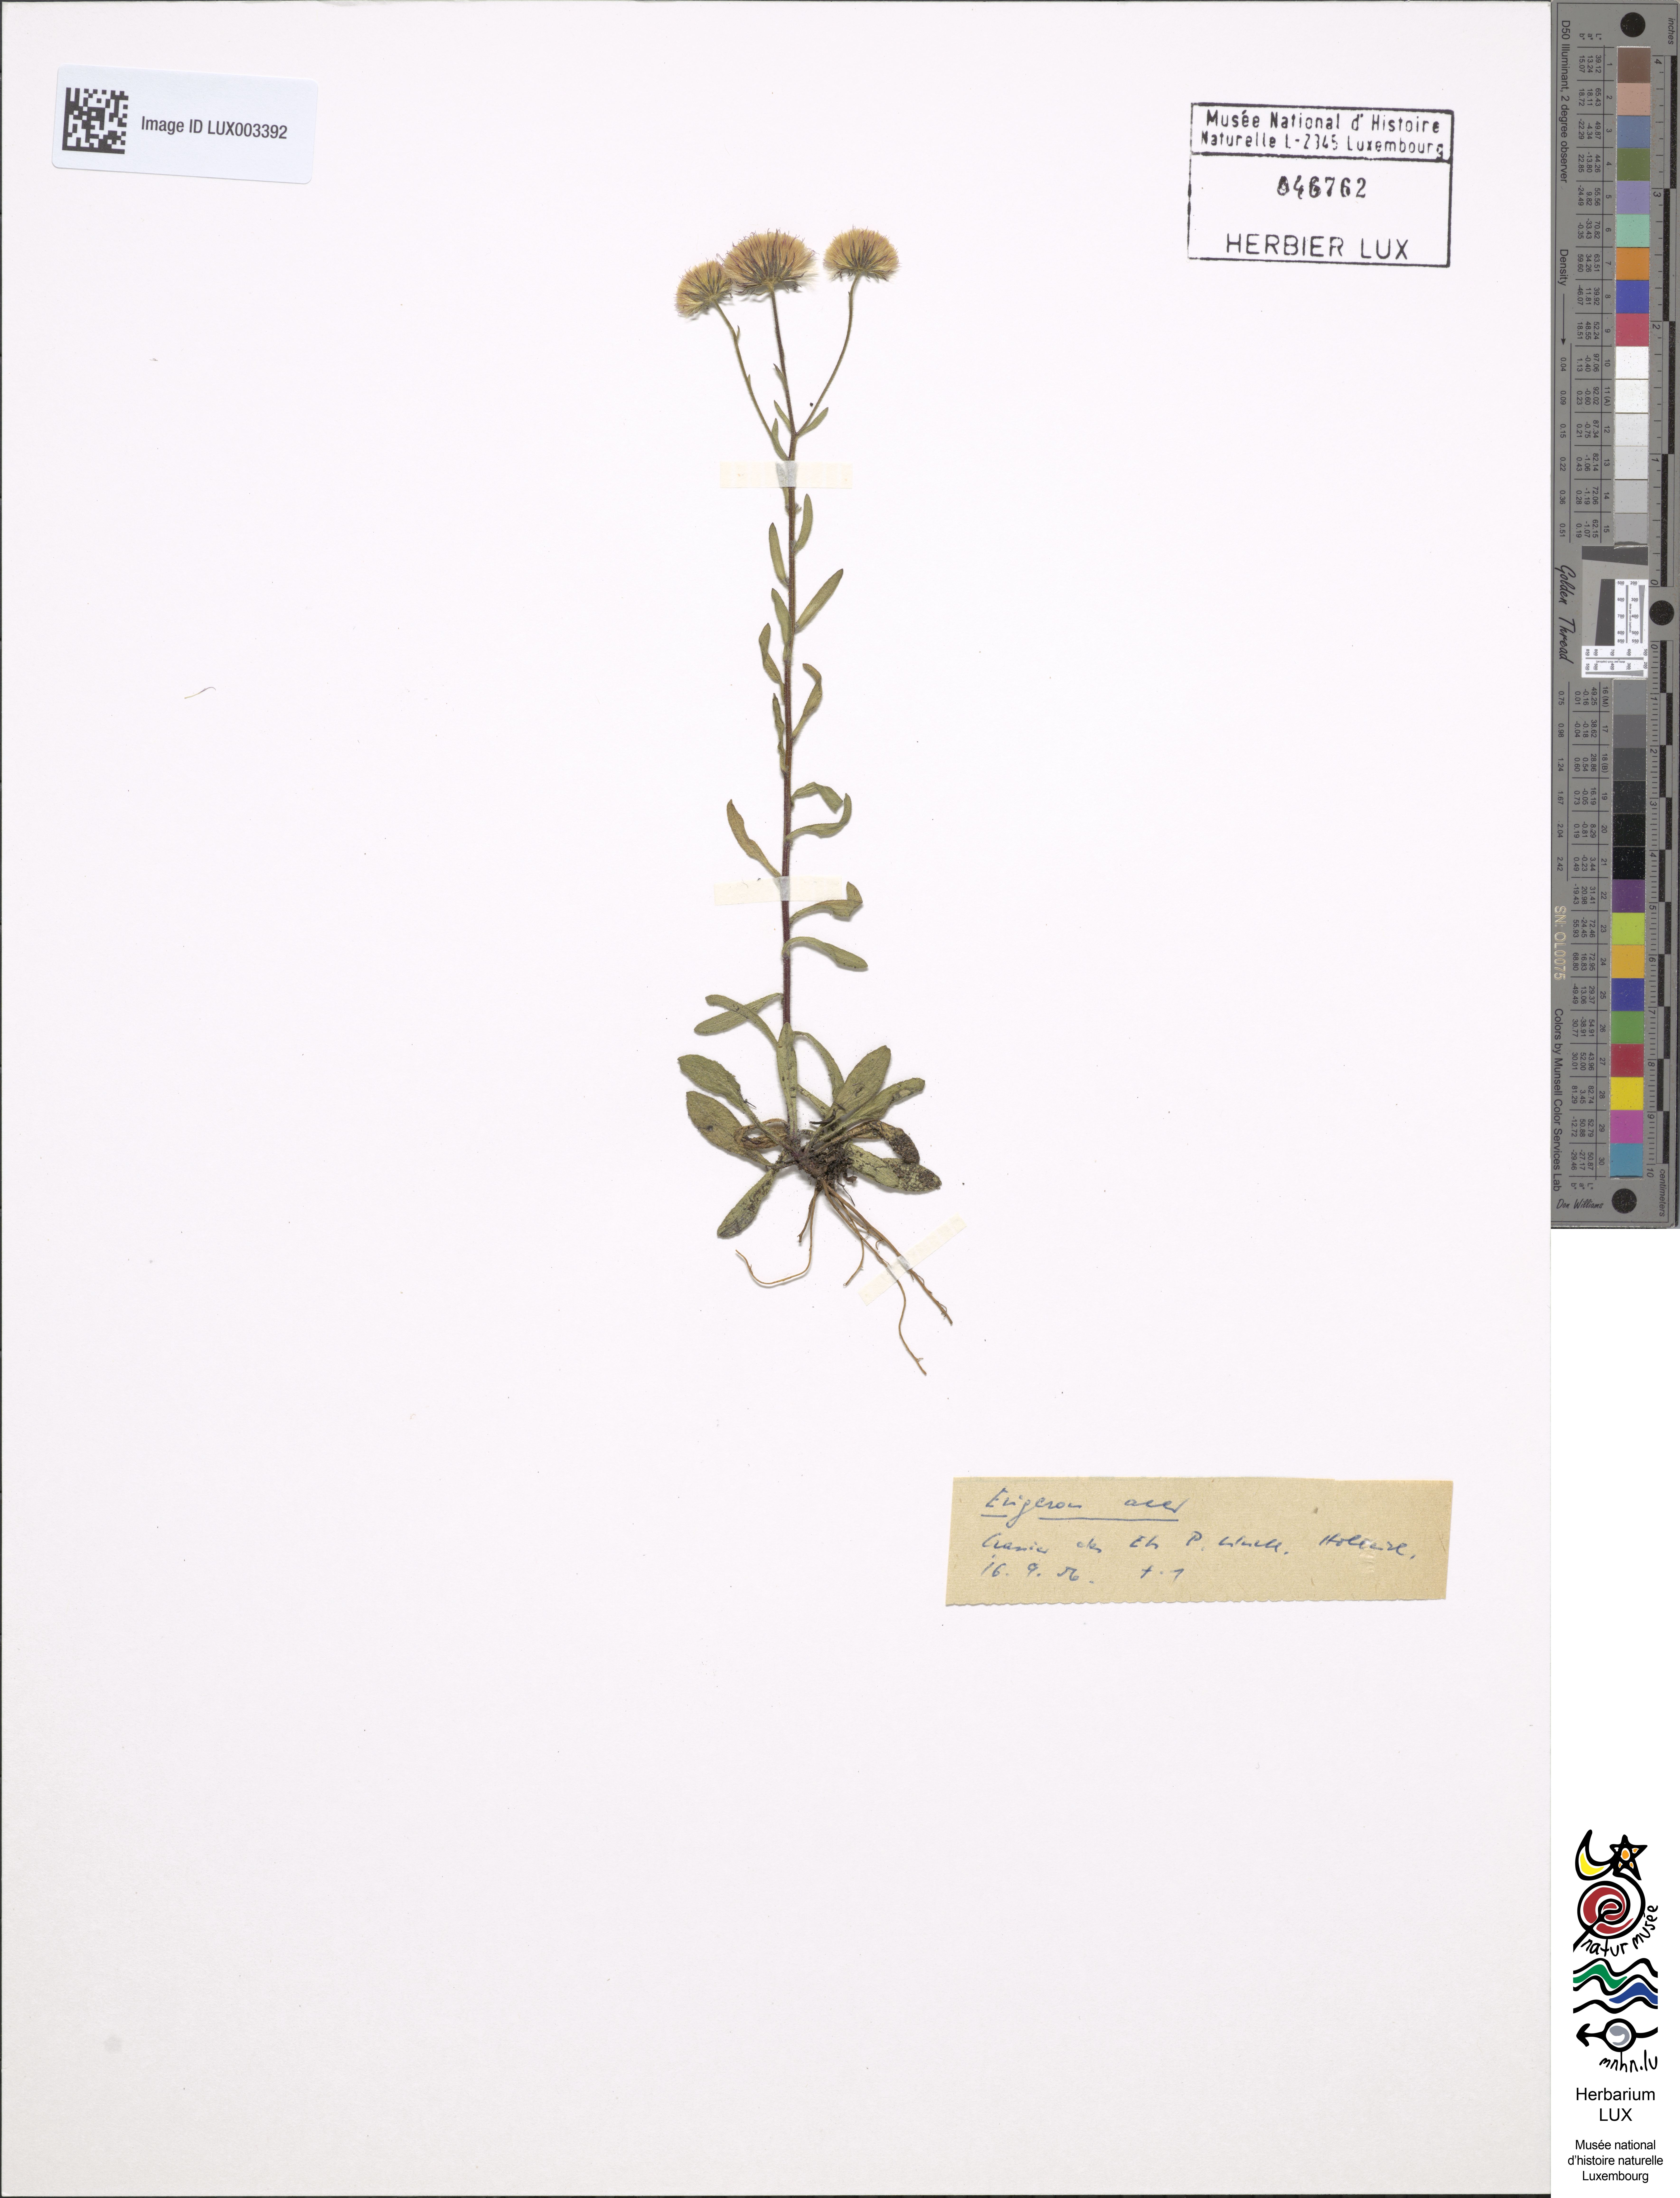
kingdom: Plantae
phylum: Tracheophyta
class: Magnoliopsida
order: Asterales
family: Asteraceae
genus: Erigeron
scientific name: Erigeron acer
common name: Blue fleabane
